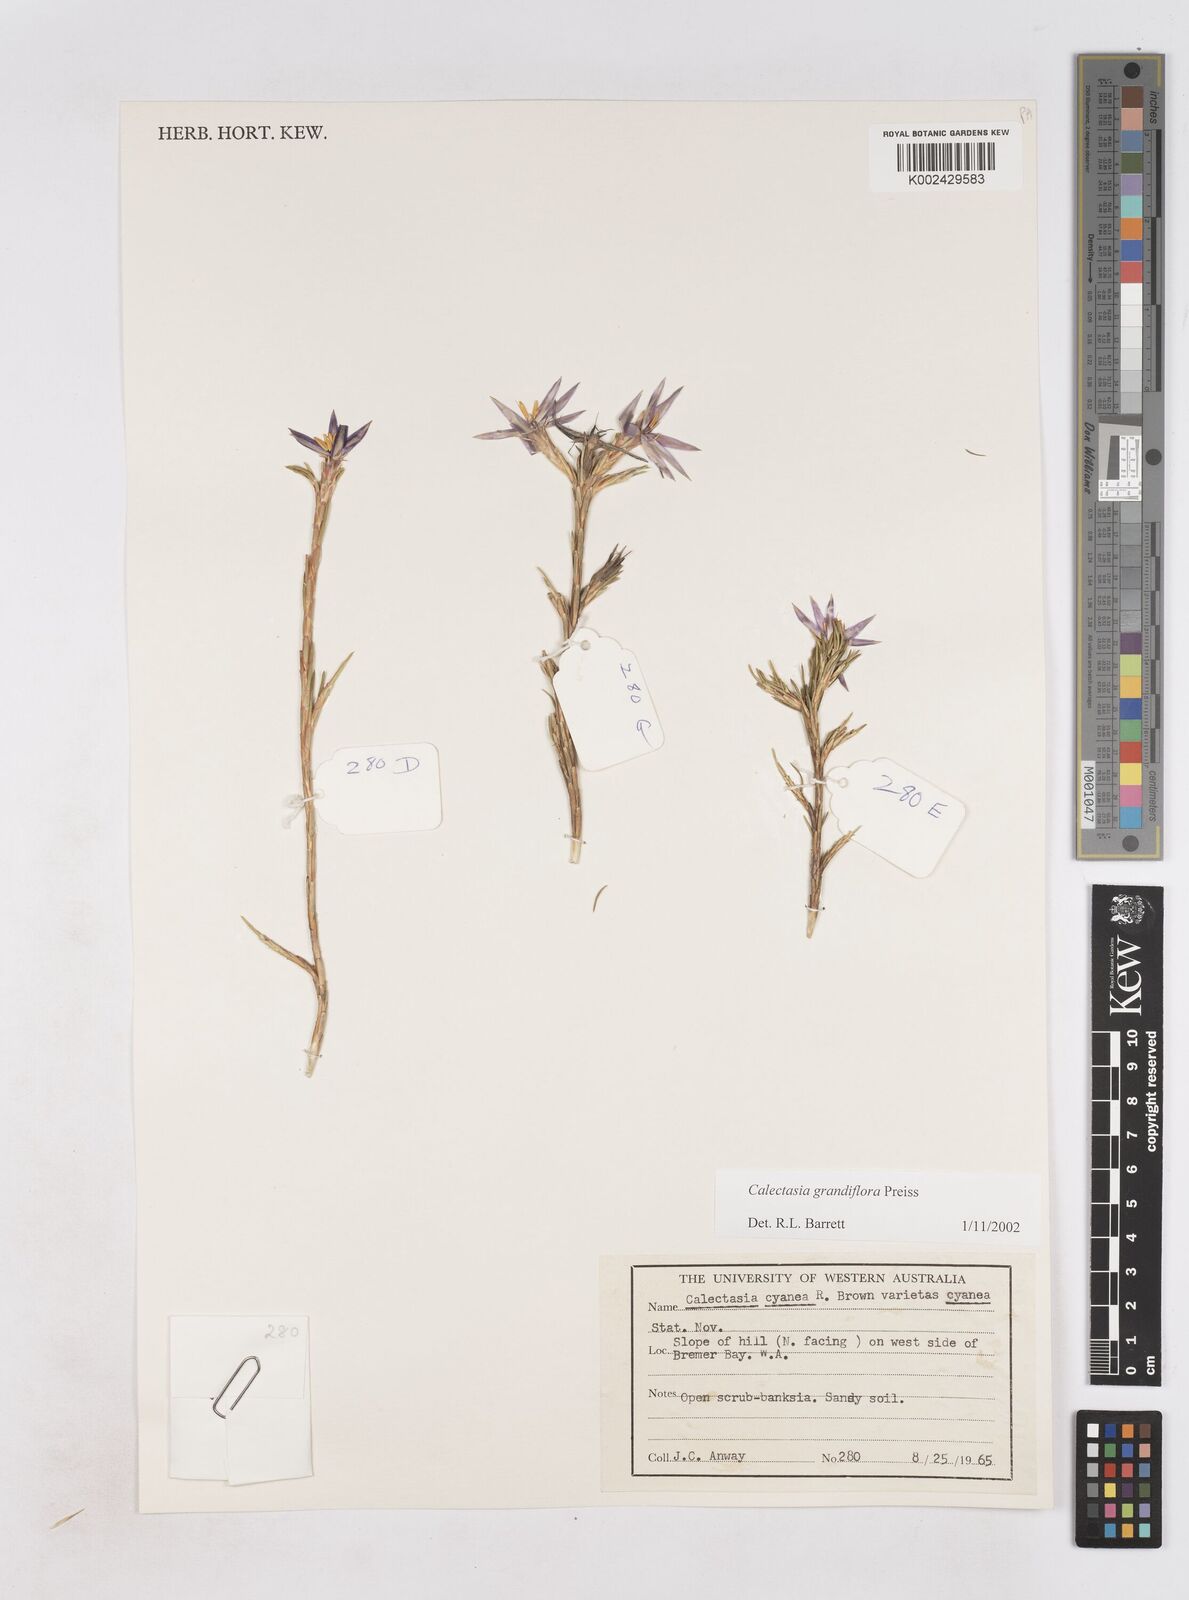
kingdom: Plantae
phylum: Tracheophyta
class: Liliopsida
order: Arecales
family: Dasypogonaceae
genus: Calectasia
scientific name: Calectasia grandiflora
